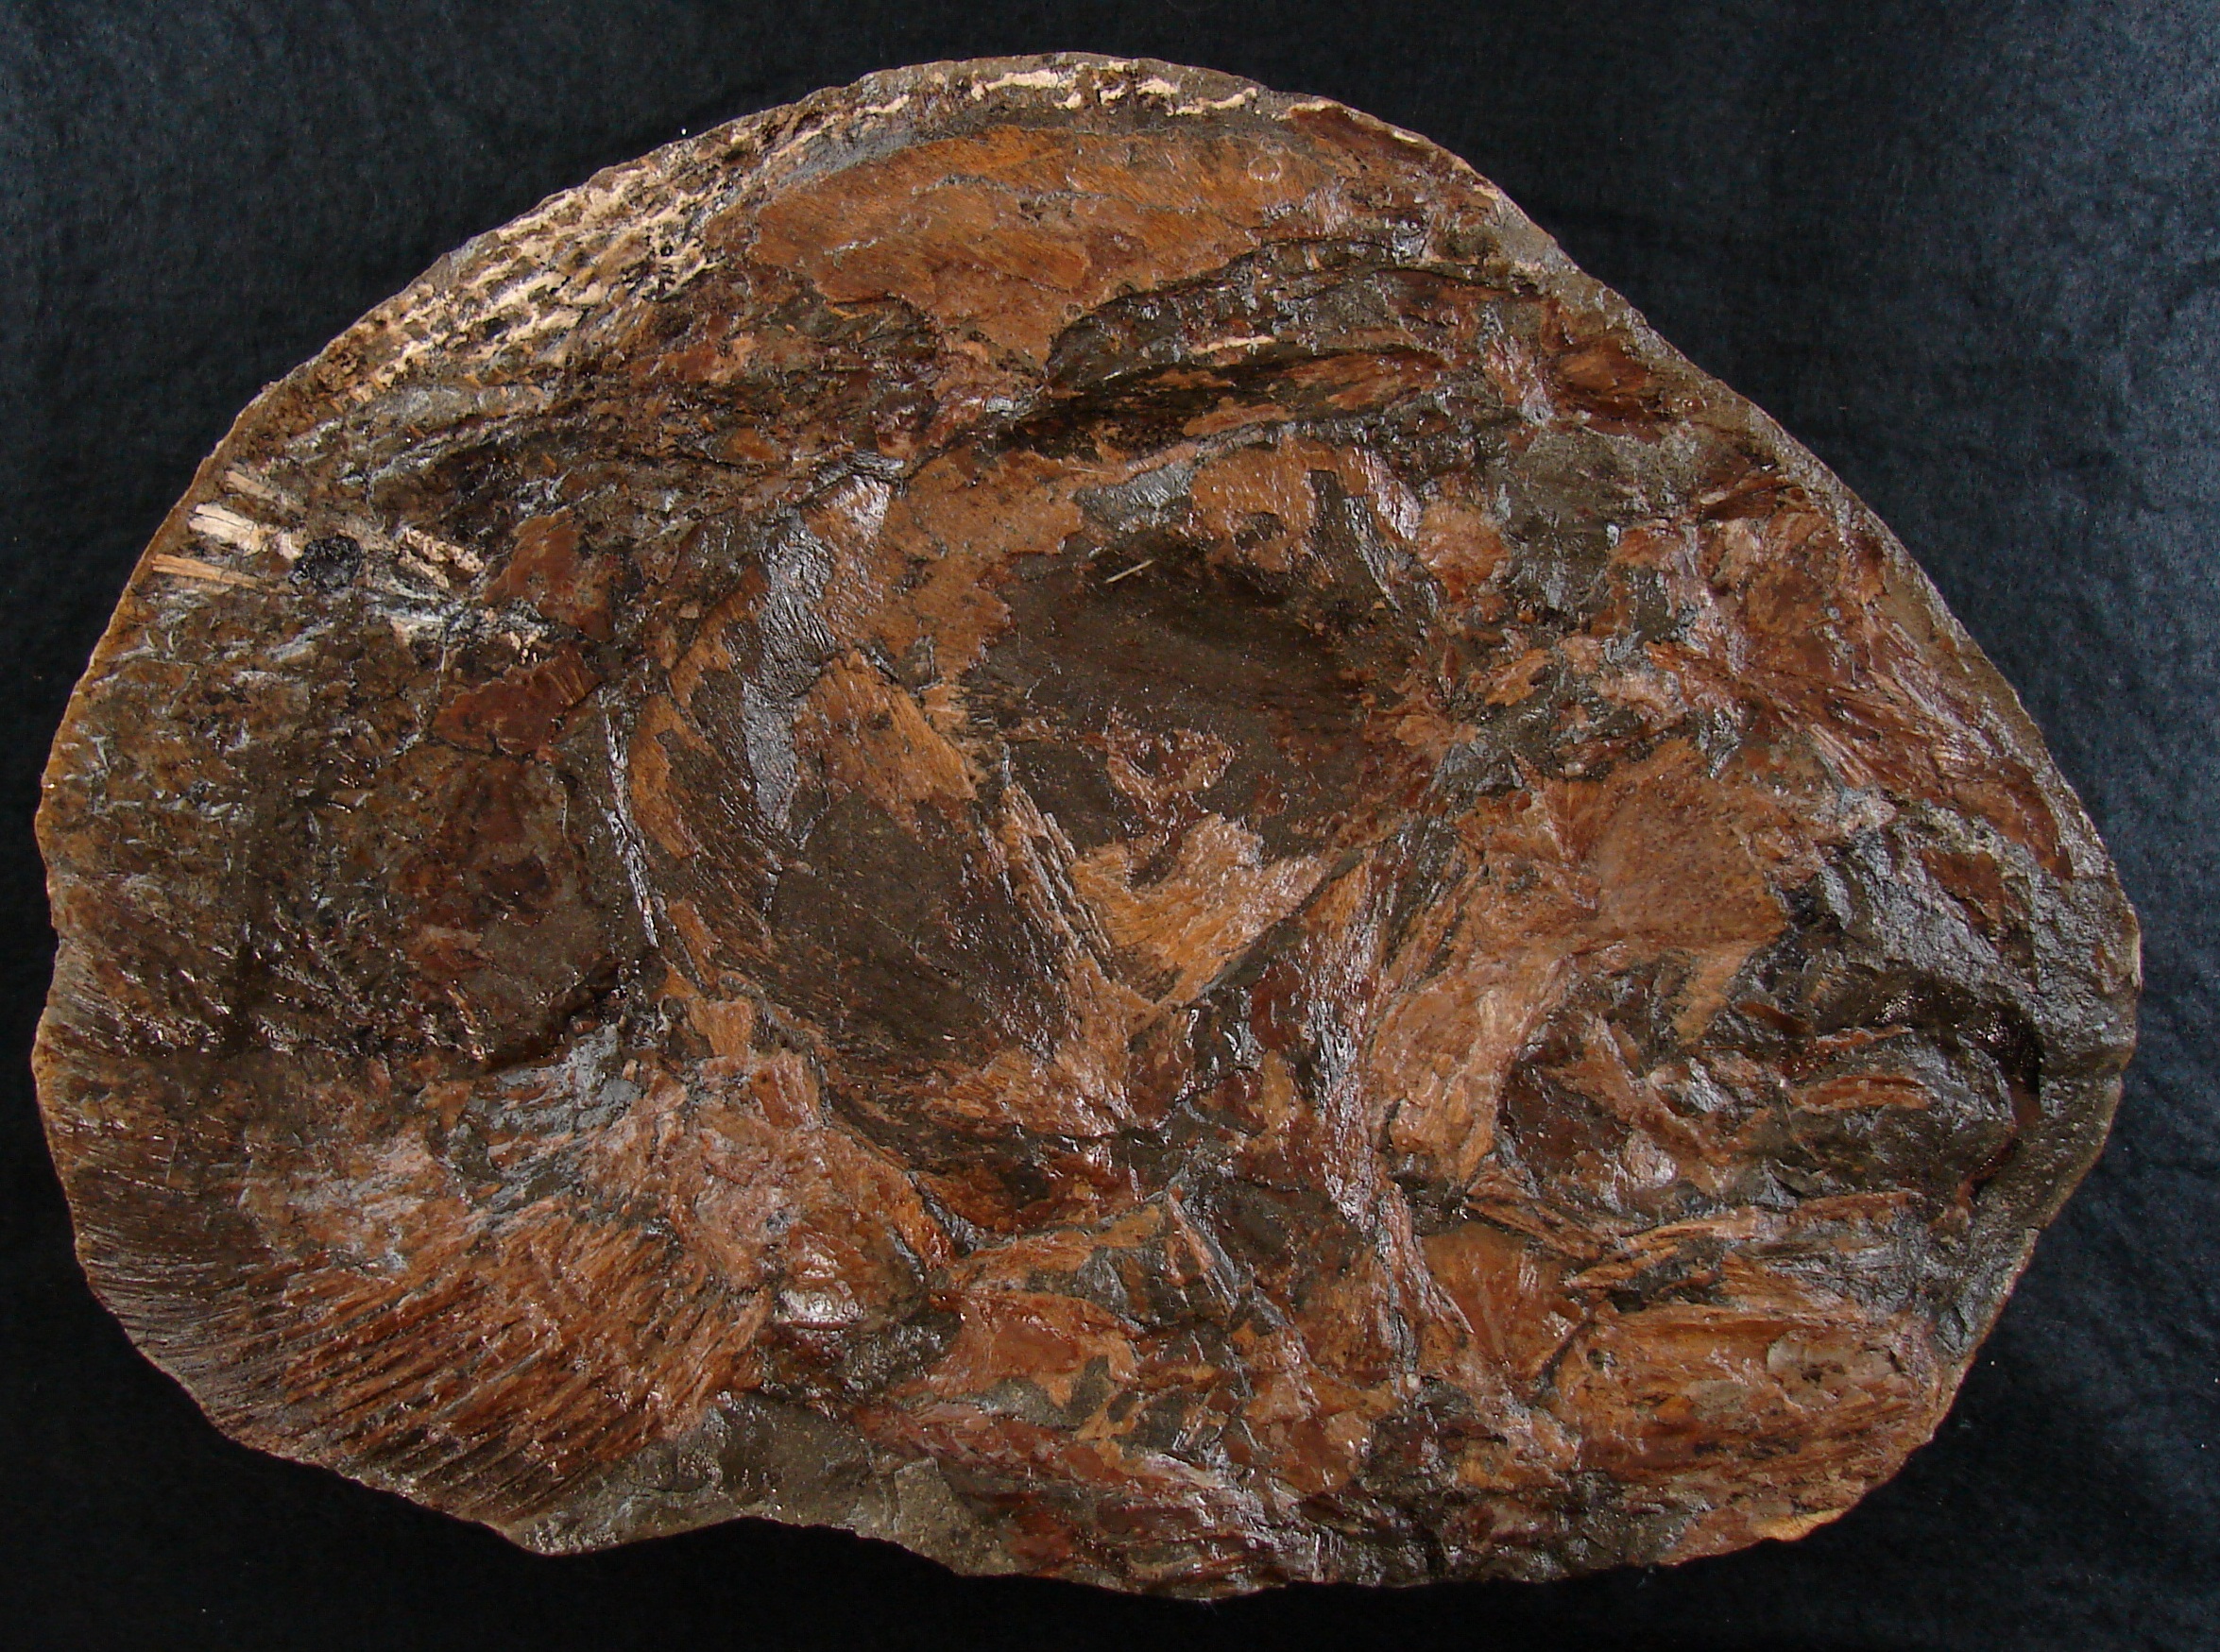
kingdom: Animalia
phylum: Chordata
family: Pachycormidae
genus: Saurostomus
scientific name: Saurostomus
